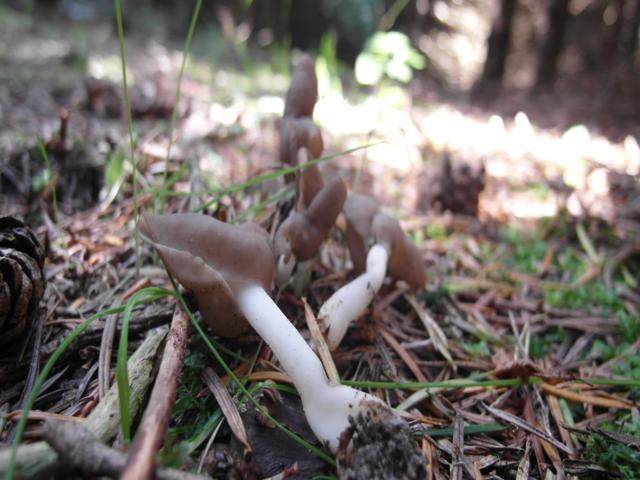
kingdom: Fungi
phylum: Ascomycota
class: Pezizomycetes
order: Pezizales
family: Helvellaceae
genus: Helvella
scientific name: Helvella levis
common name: bredsporet foldhat
